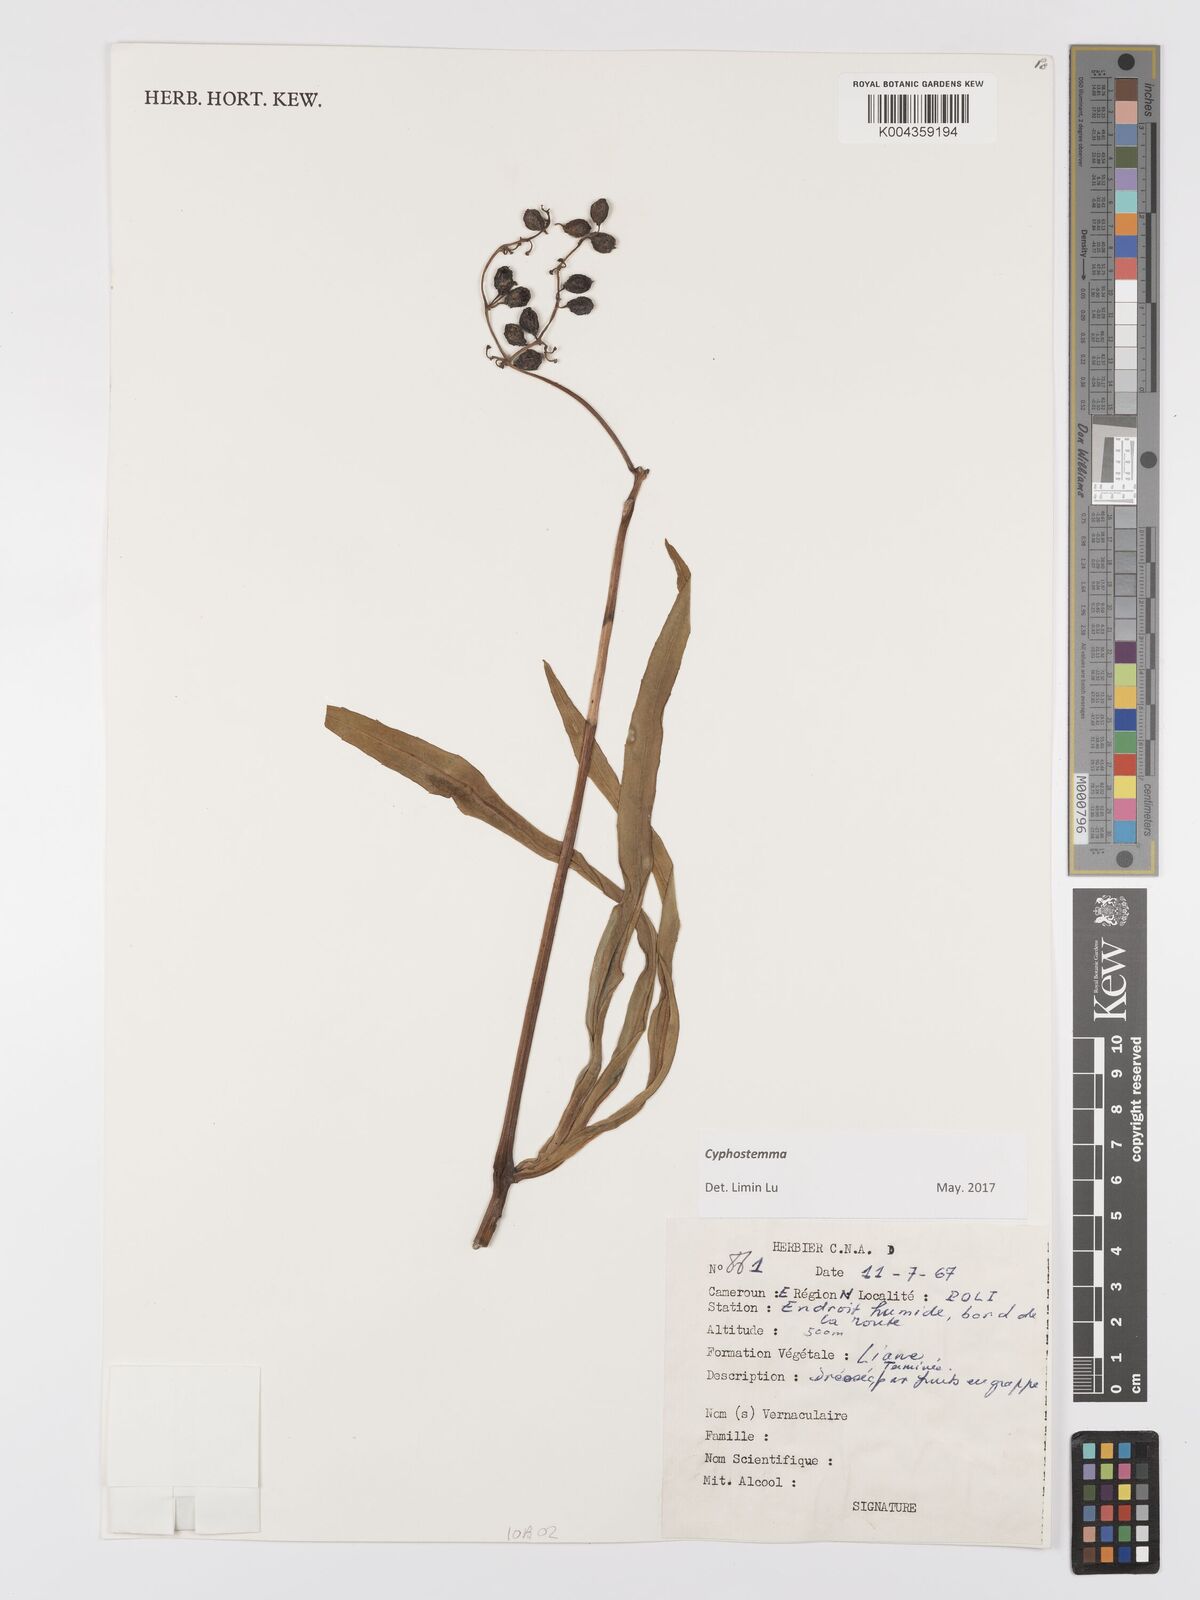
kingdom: Plantae
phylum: Tracheophyta
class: Magnoliopsida
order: Vitales
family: Vitaceae
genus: Cyphostemma
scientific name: Cyphostemma
